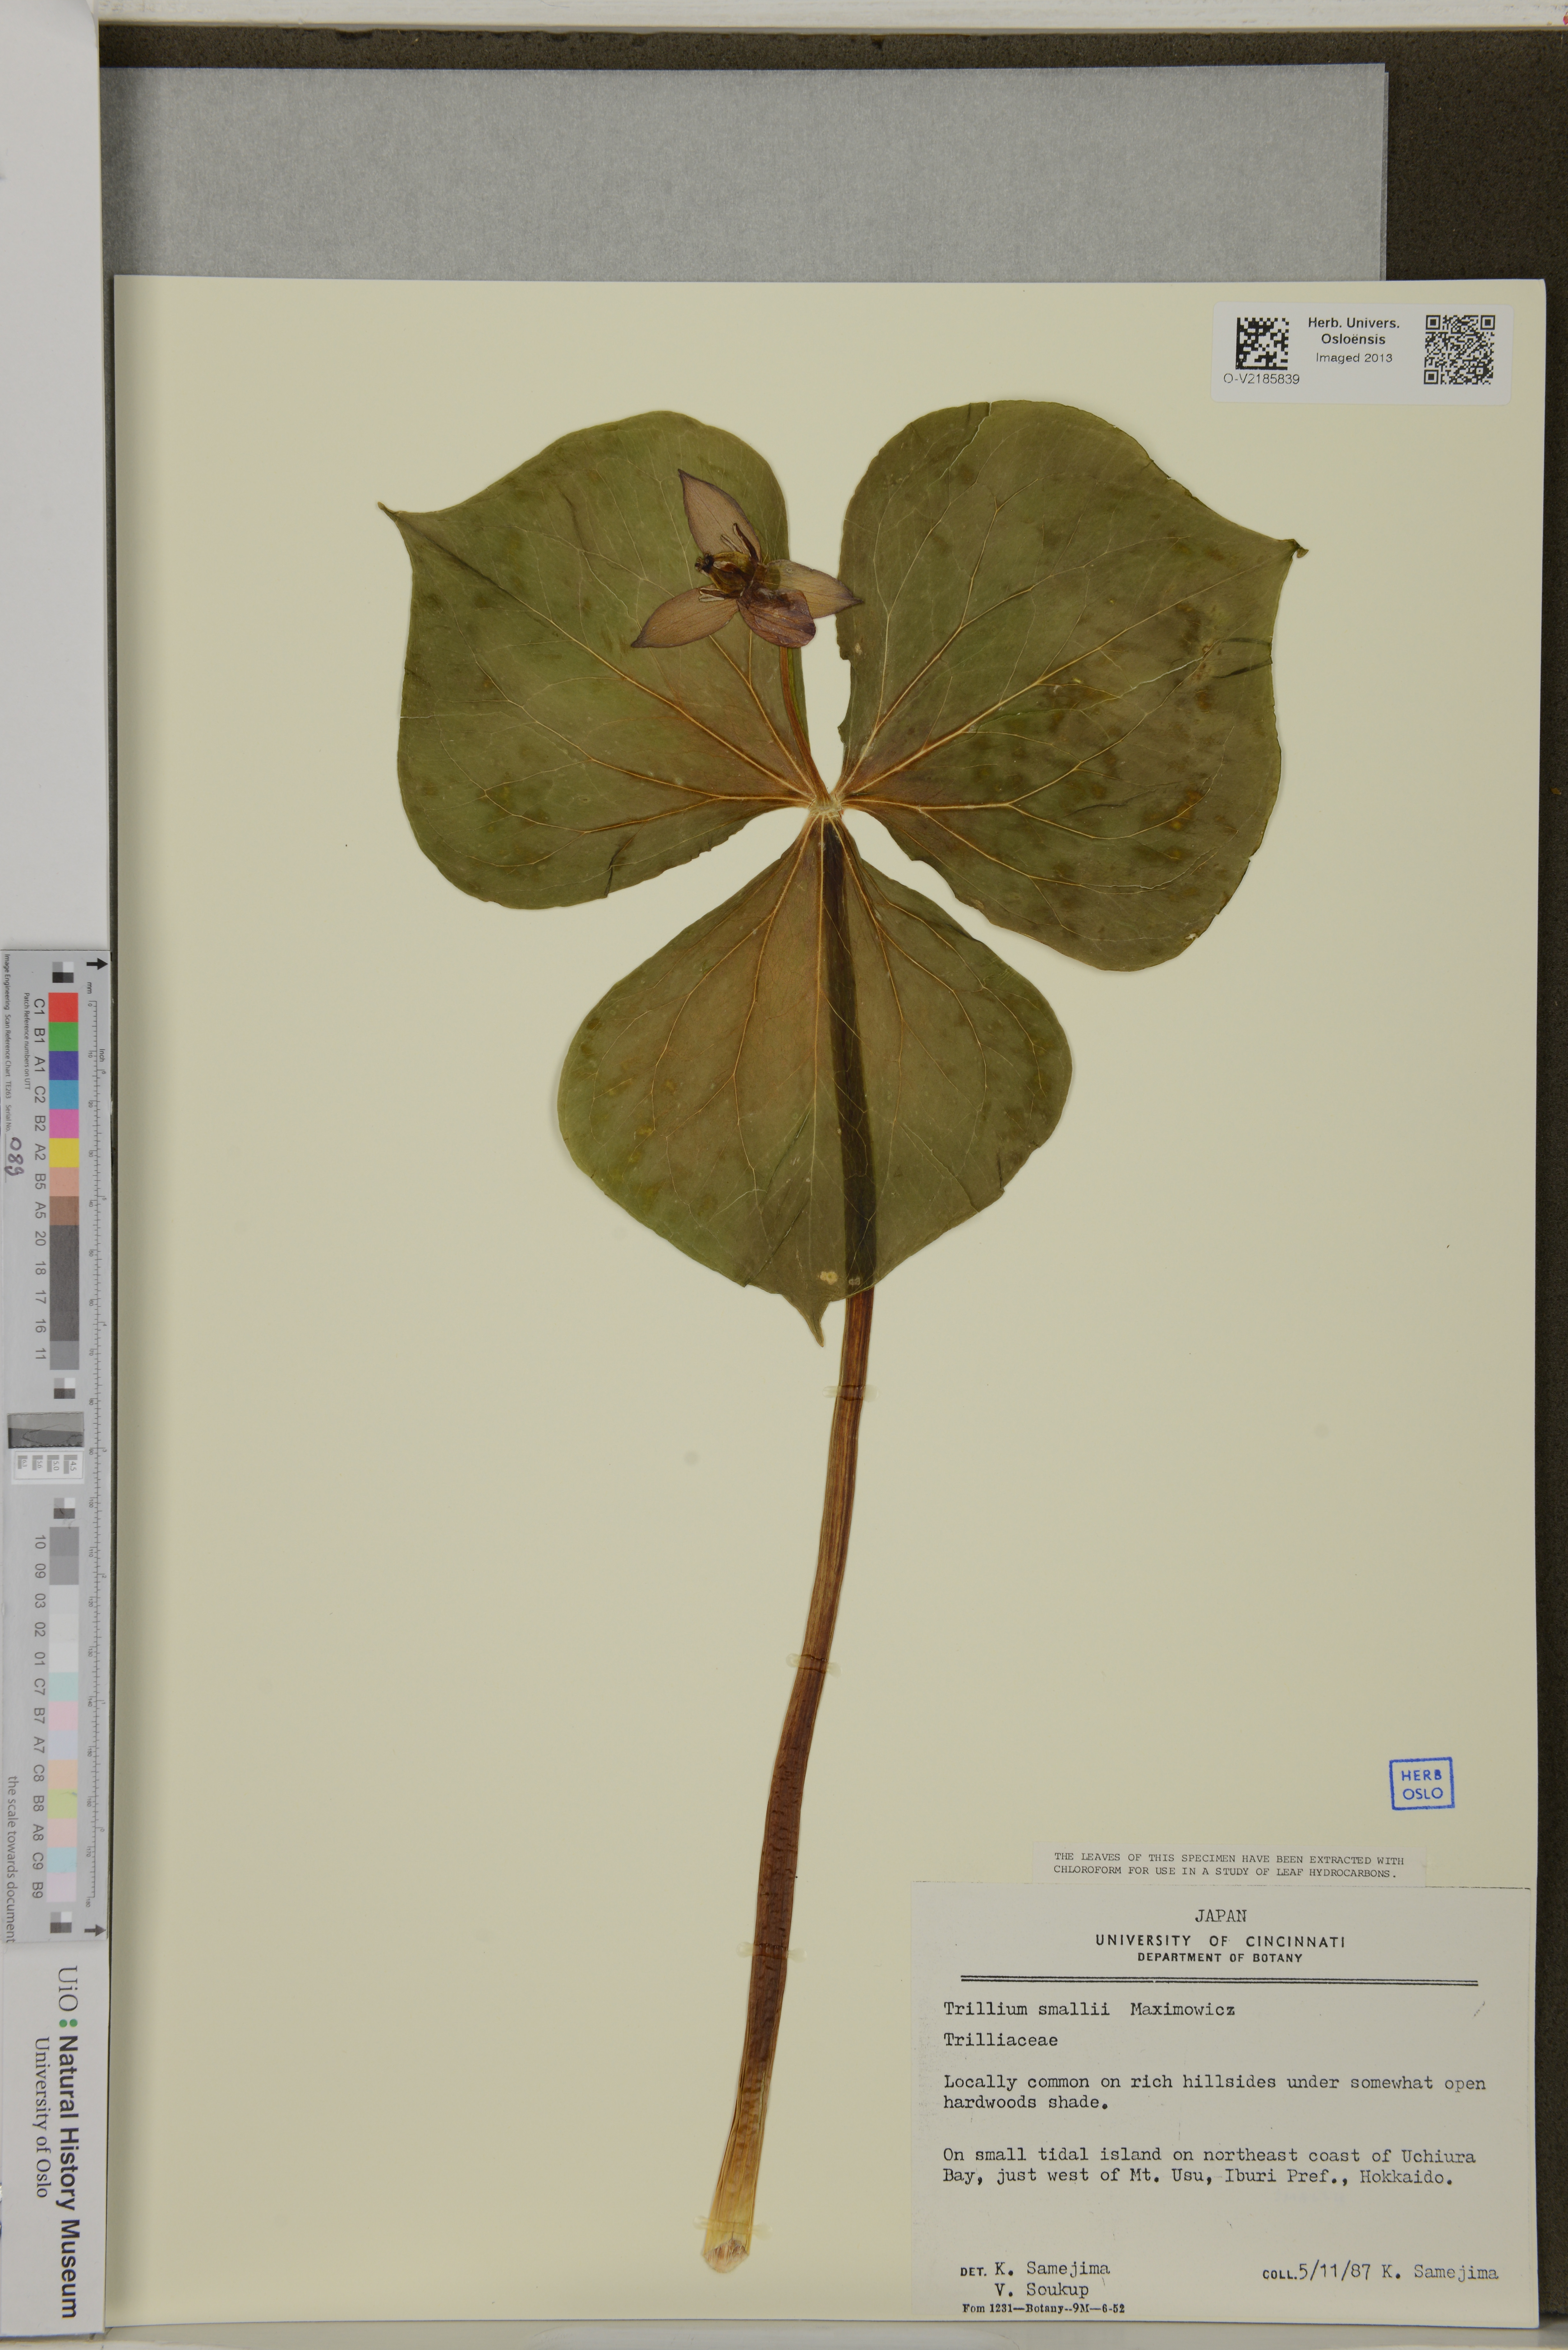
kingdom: Plantae
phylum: Tracheophyta
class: Liliopsida
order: Liliales
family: Melanthiaceae
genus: Trillium
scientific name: Trillium smallii
